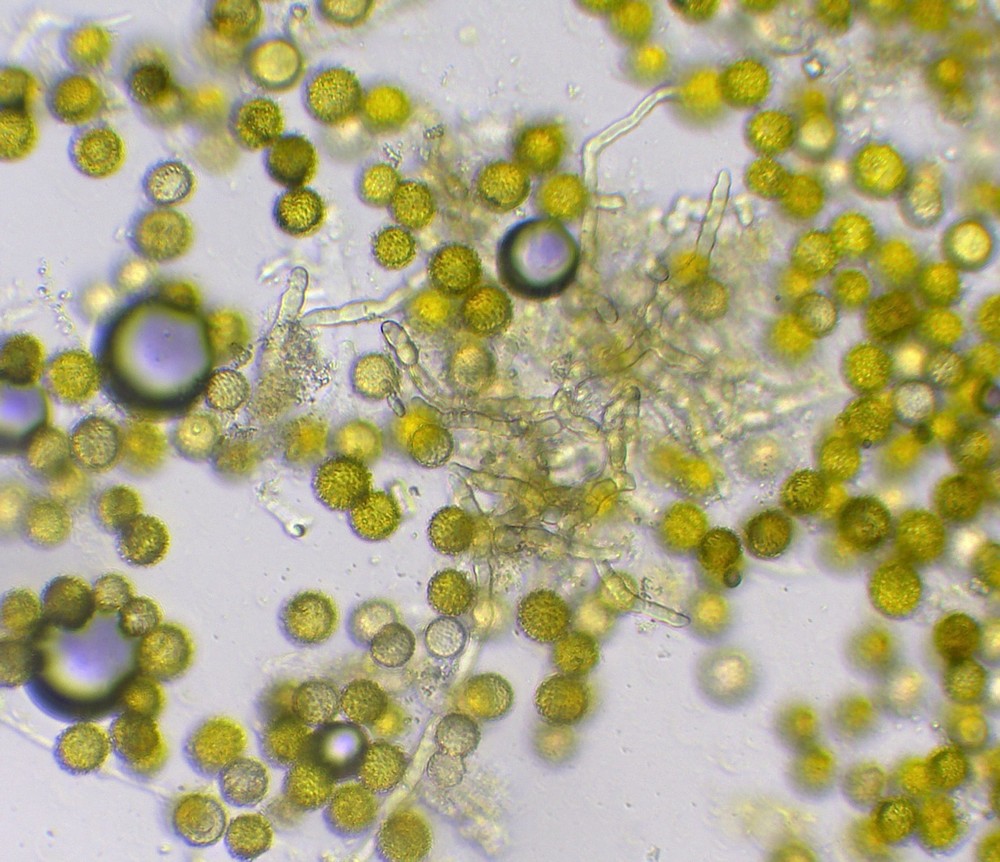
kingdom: Fungi
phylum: Ascomycota
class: Sordariomycetes
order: Hypocreales
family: Hypocreaceae
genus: Sepedonium
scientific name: Sepedonium microspermum
